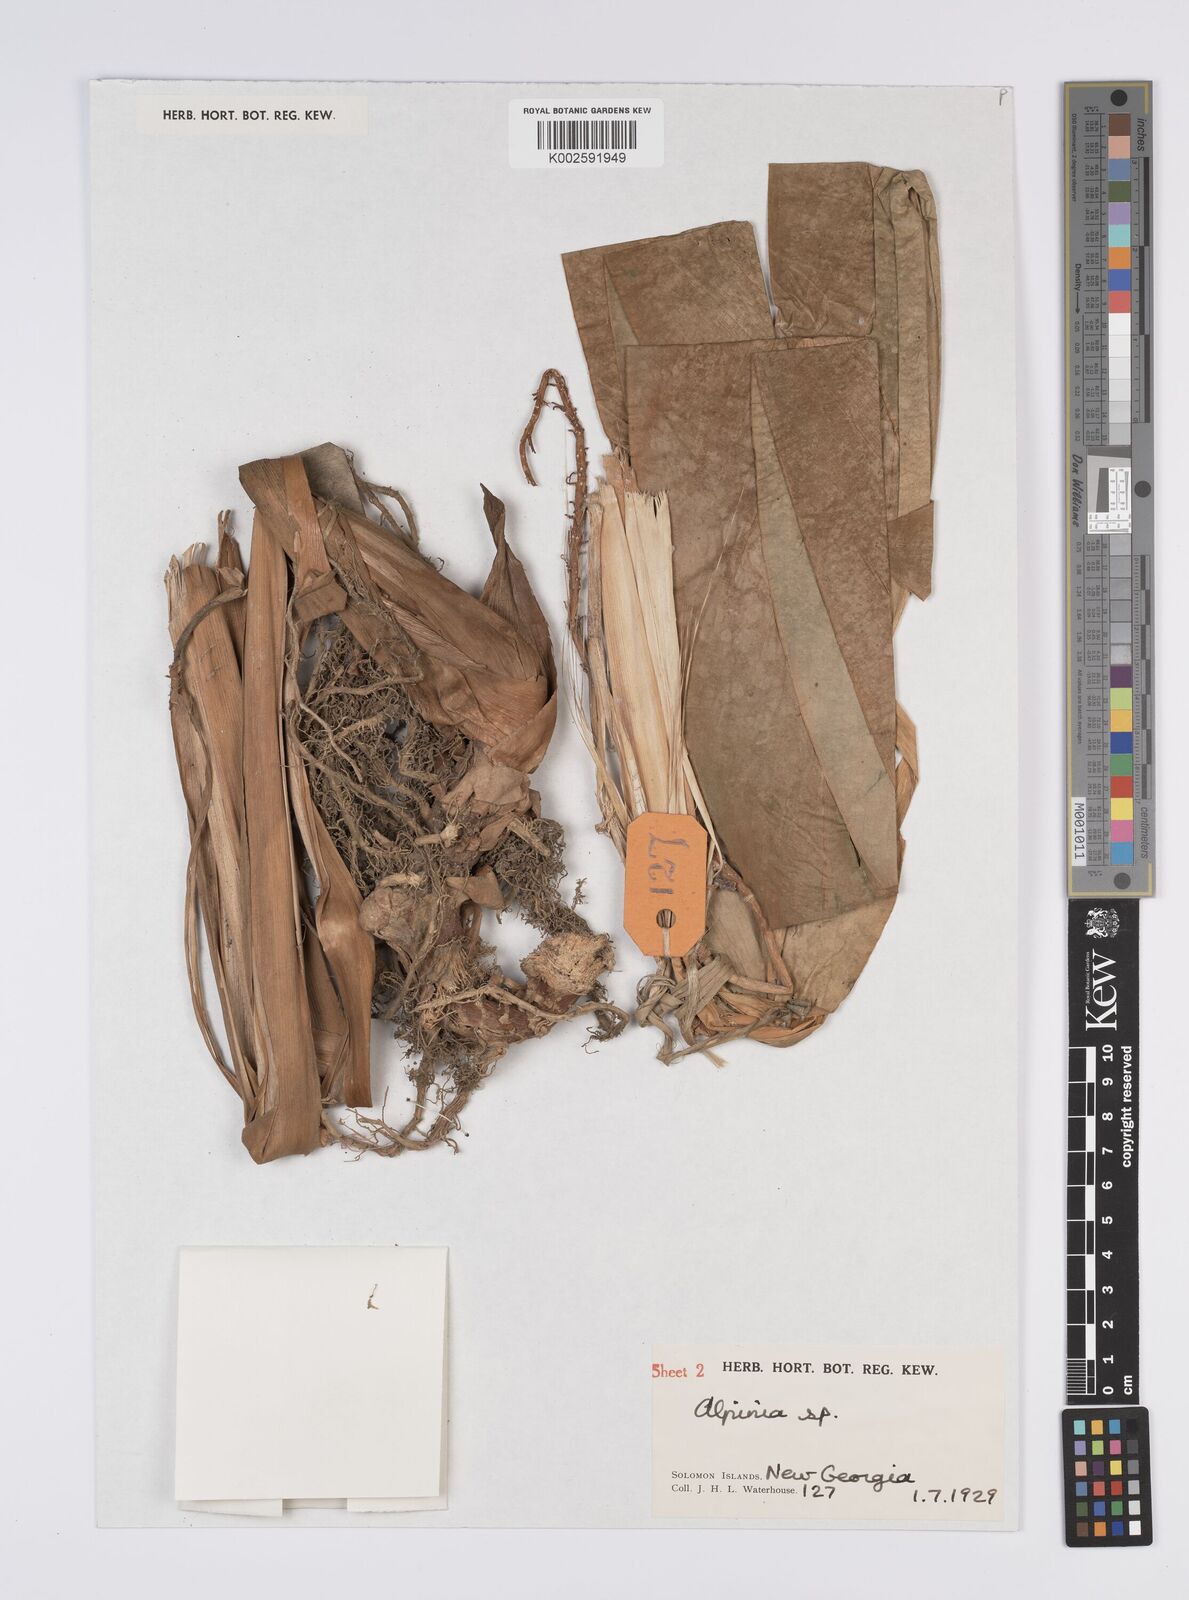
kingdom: Plantae
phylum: Tracheophyta
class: Liliopsida
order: Zingiberales
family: Zingiberaceae
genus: Alpinia
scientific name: Alpinia
